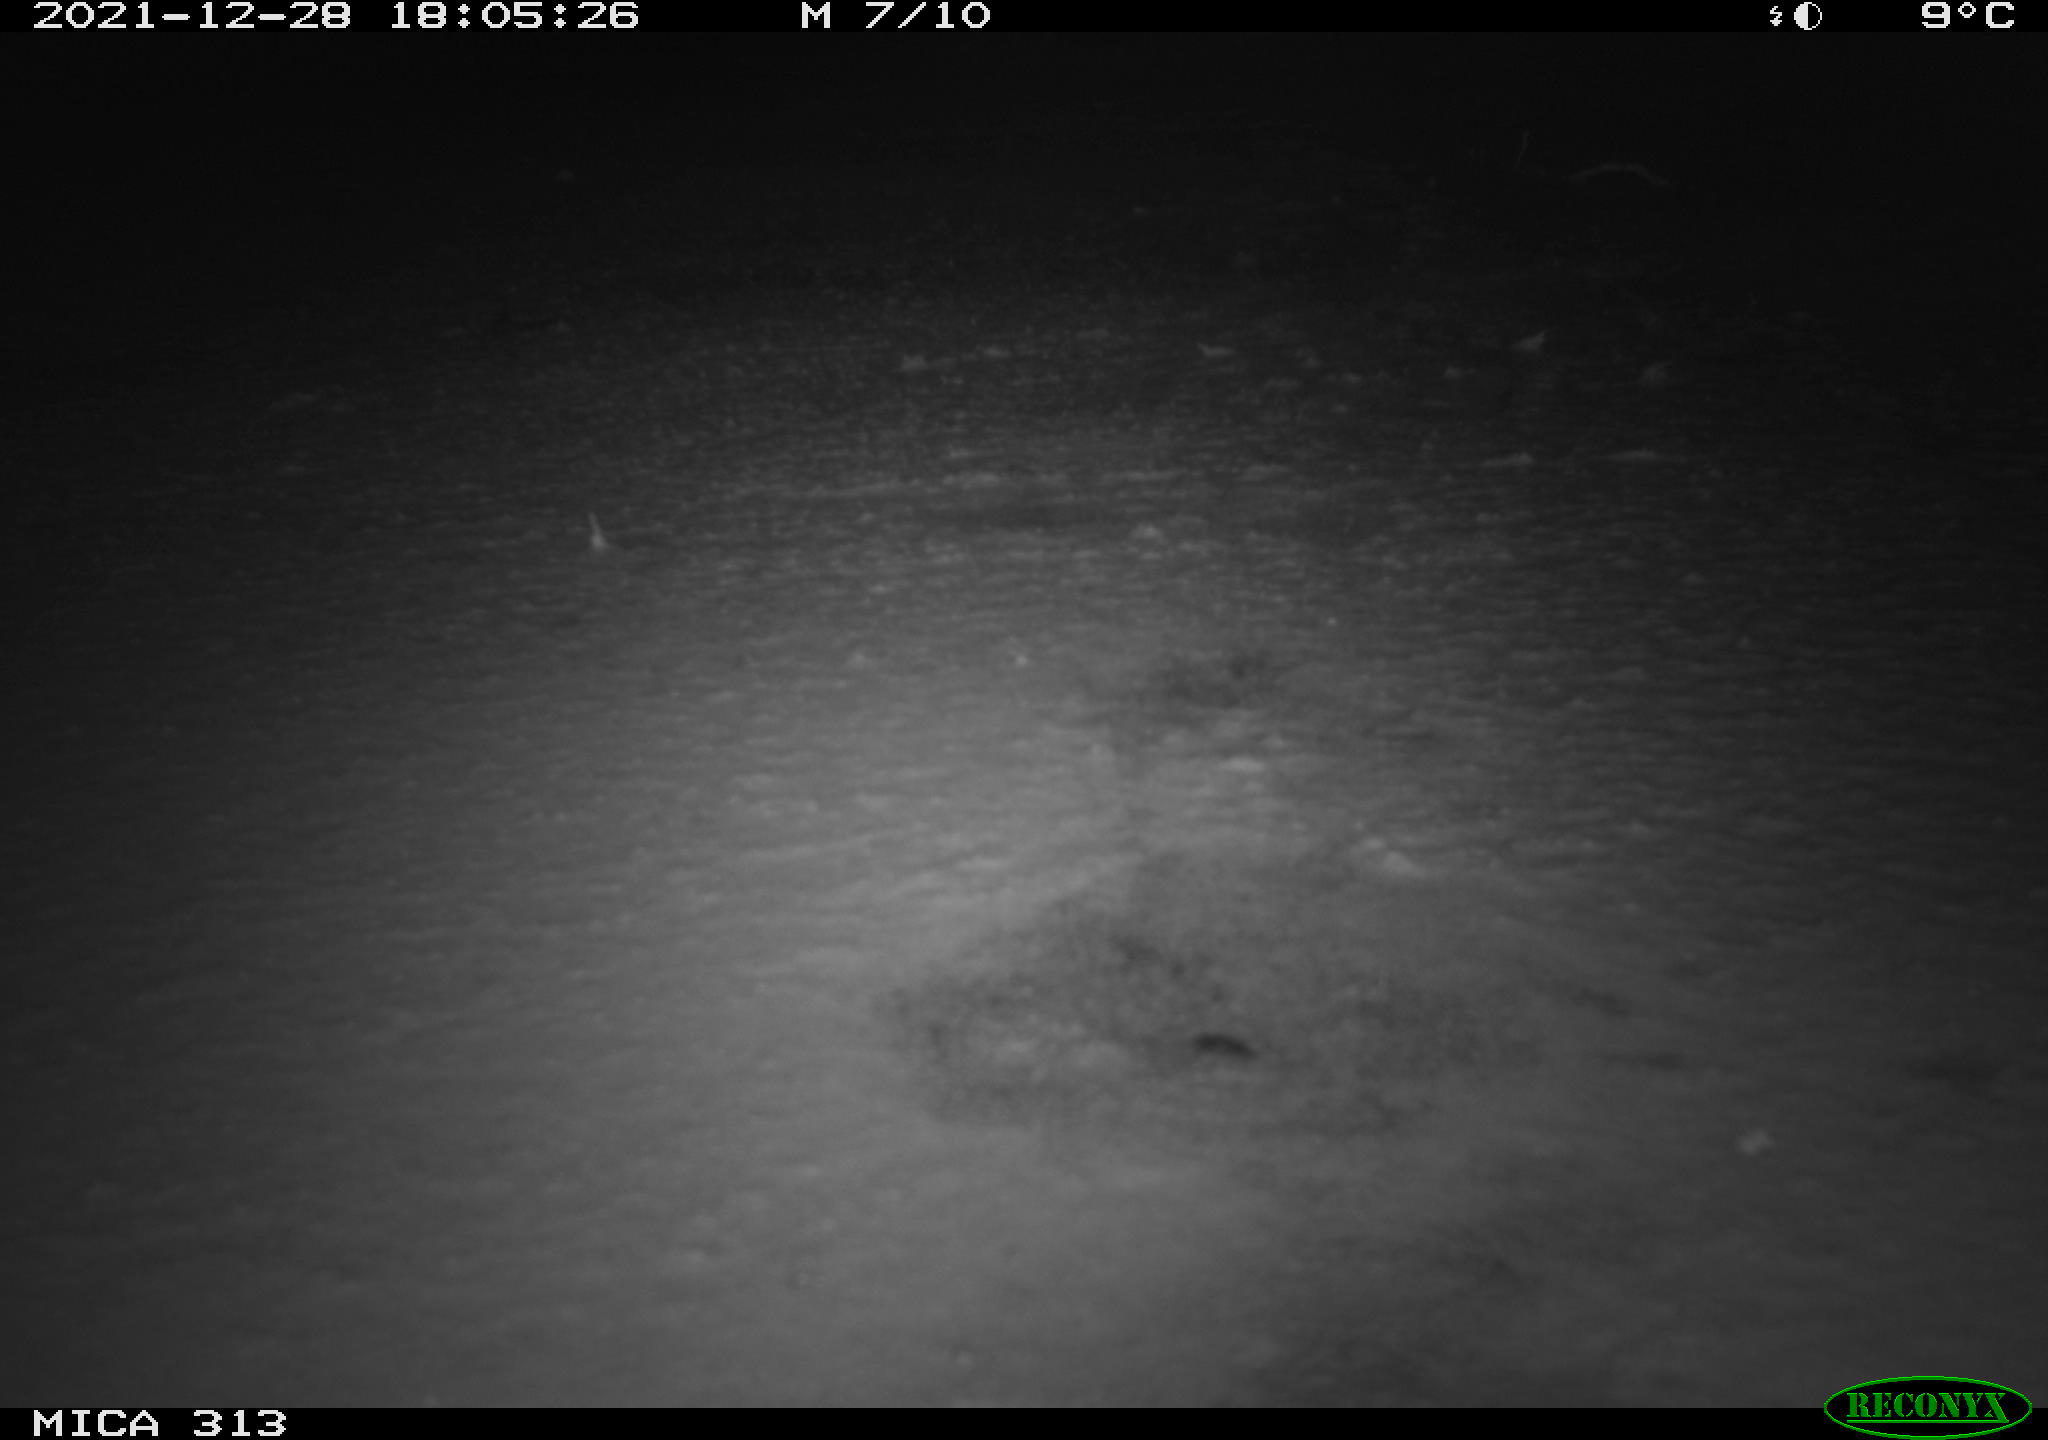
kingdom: Animalia
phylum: Chordata
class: Aves
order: Gruiformes
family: Rallidae
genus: Gallinula
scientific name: Gallinula chloropus
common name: Common moorhen
